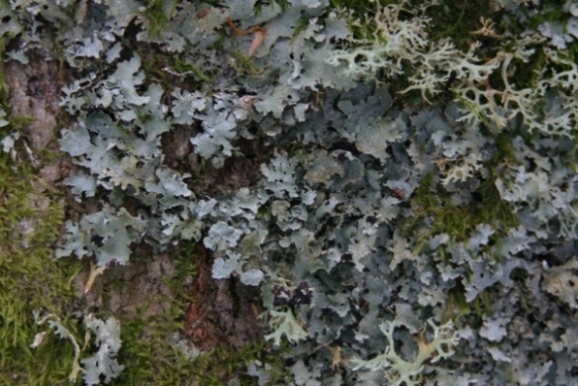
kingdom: Fungi
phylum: Ascomycota
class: Lecanoromycetes
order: Lecanorales
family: Parmeliaceae
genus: Parmelia
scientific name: Parmelia sulcata
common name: rynket skållav
